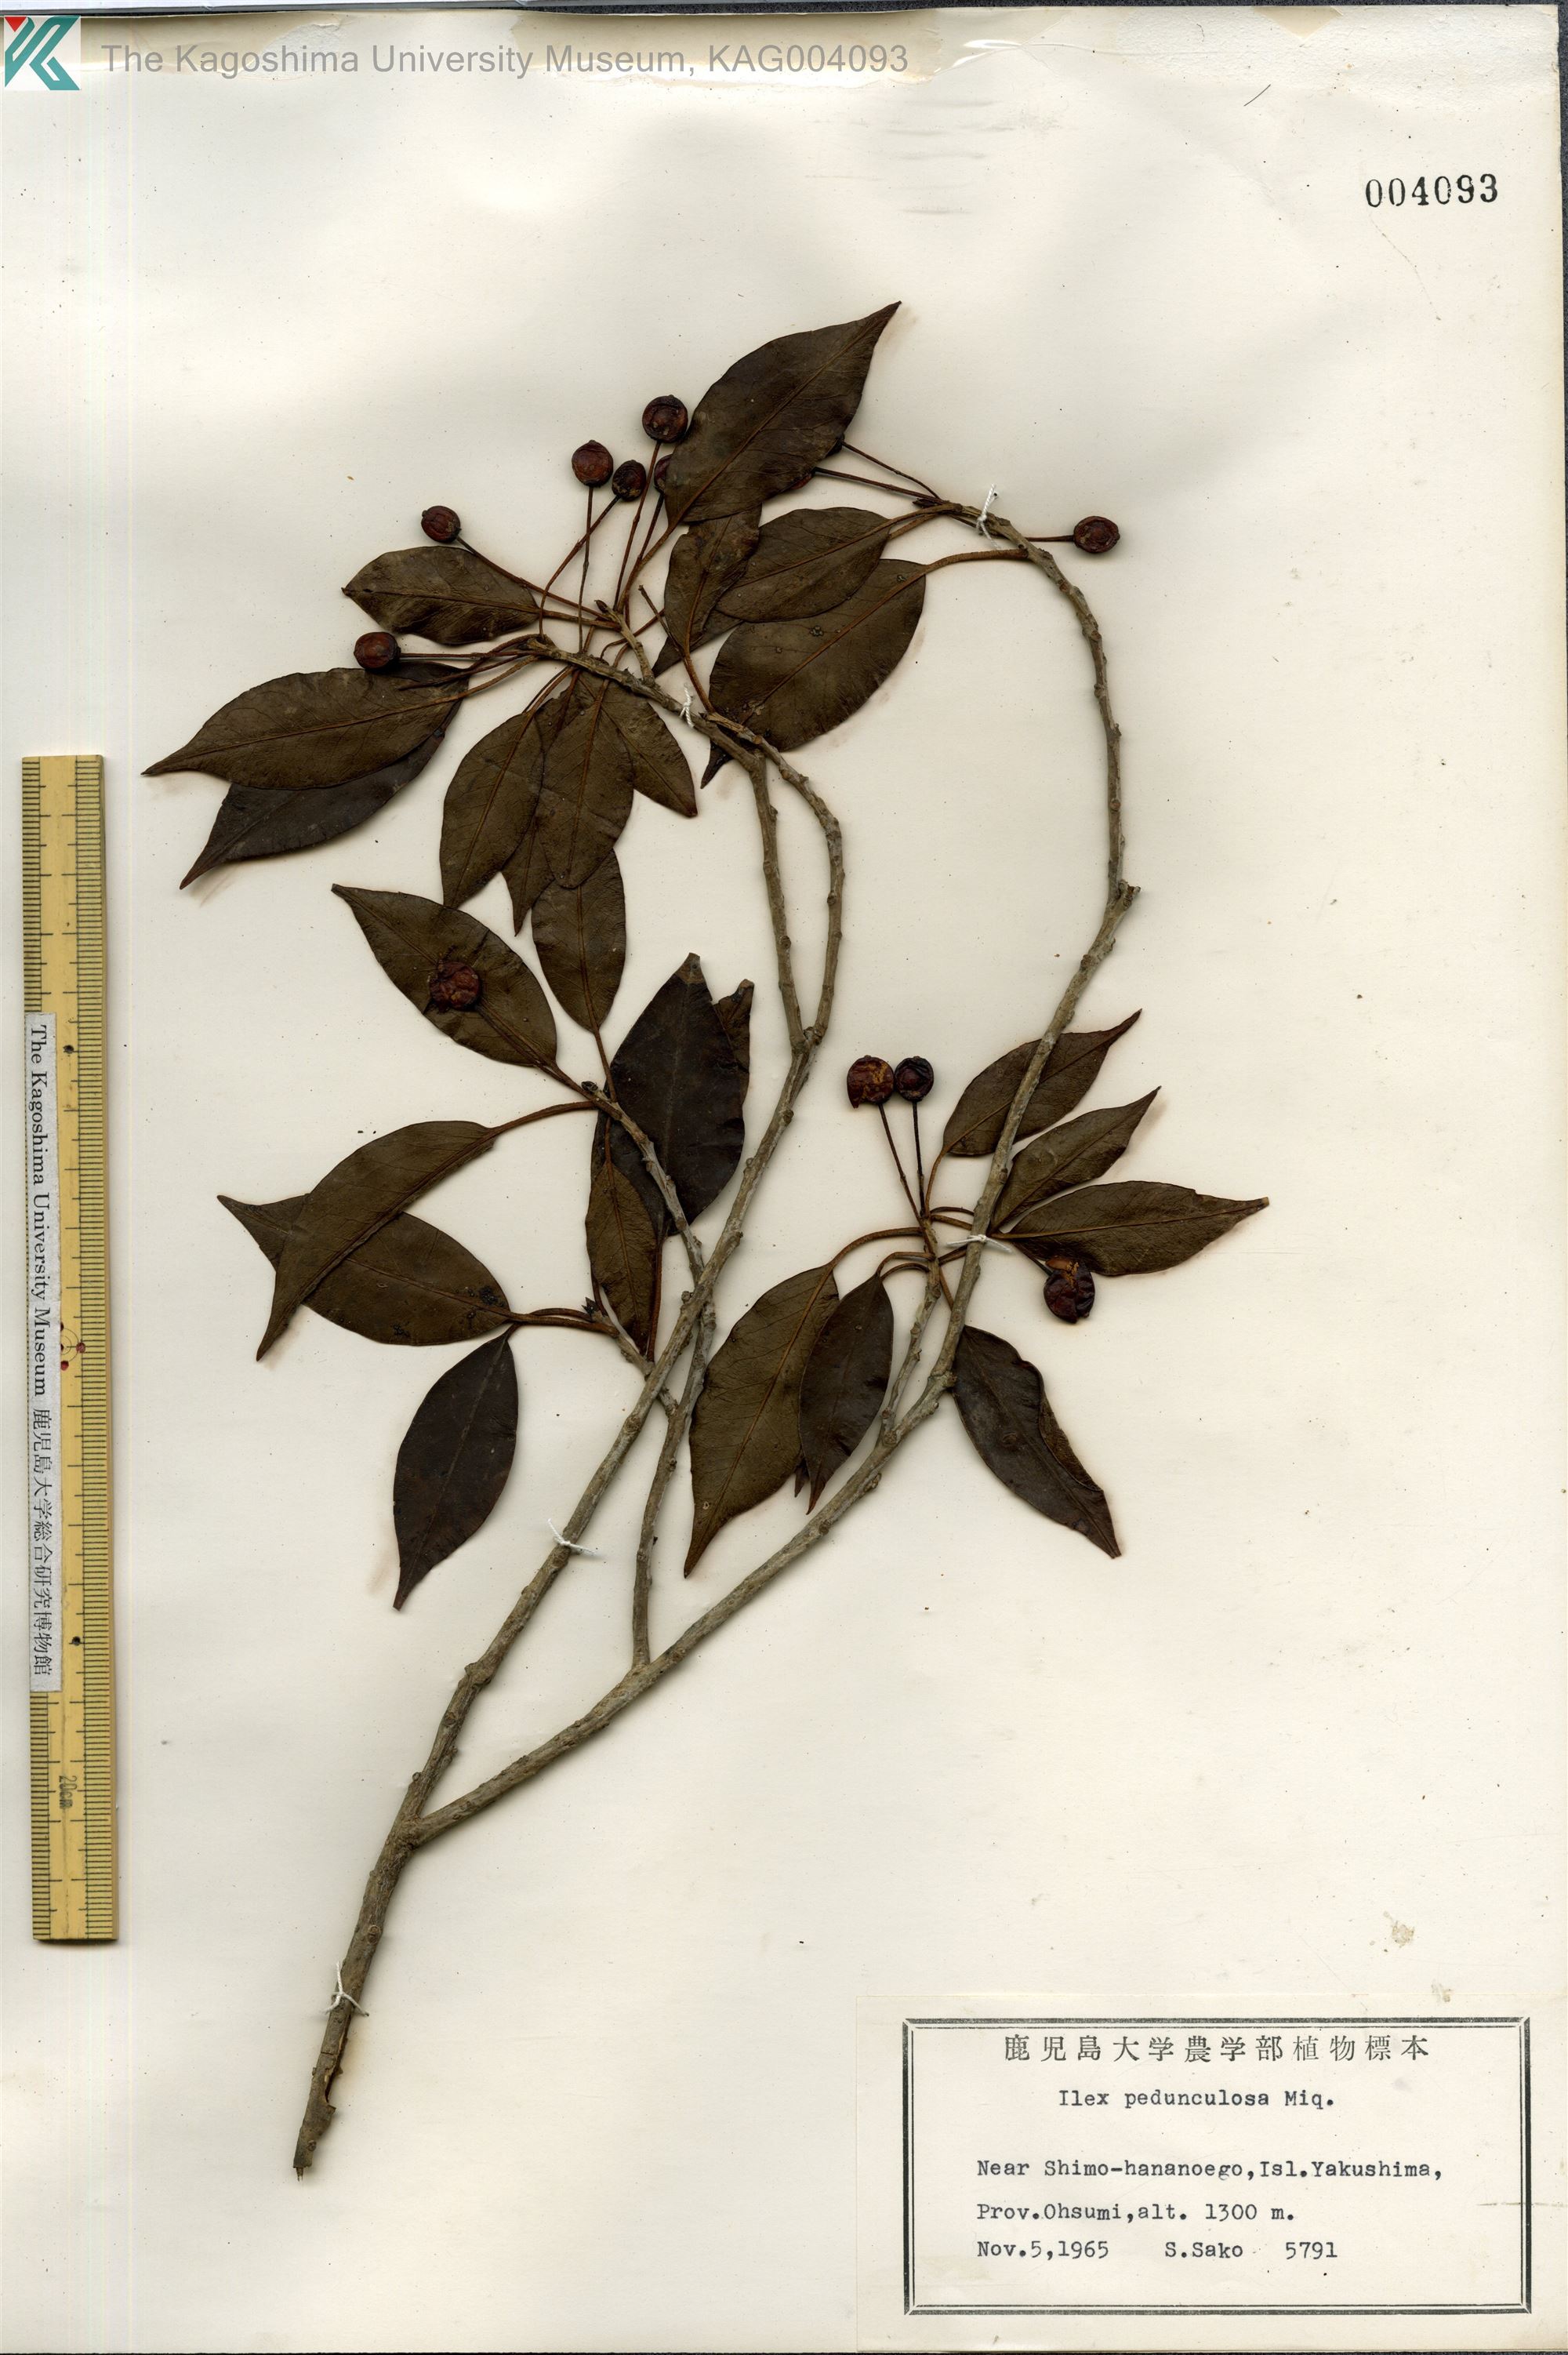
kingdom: Plantae
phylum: Tracheophyta
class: Magnoliopsida
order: Aquifoliales
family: Aquifoliaceae
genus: Ilex
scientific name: Ilex pedunculosa
